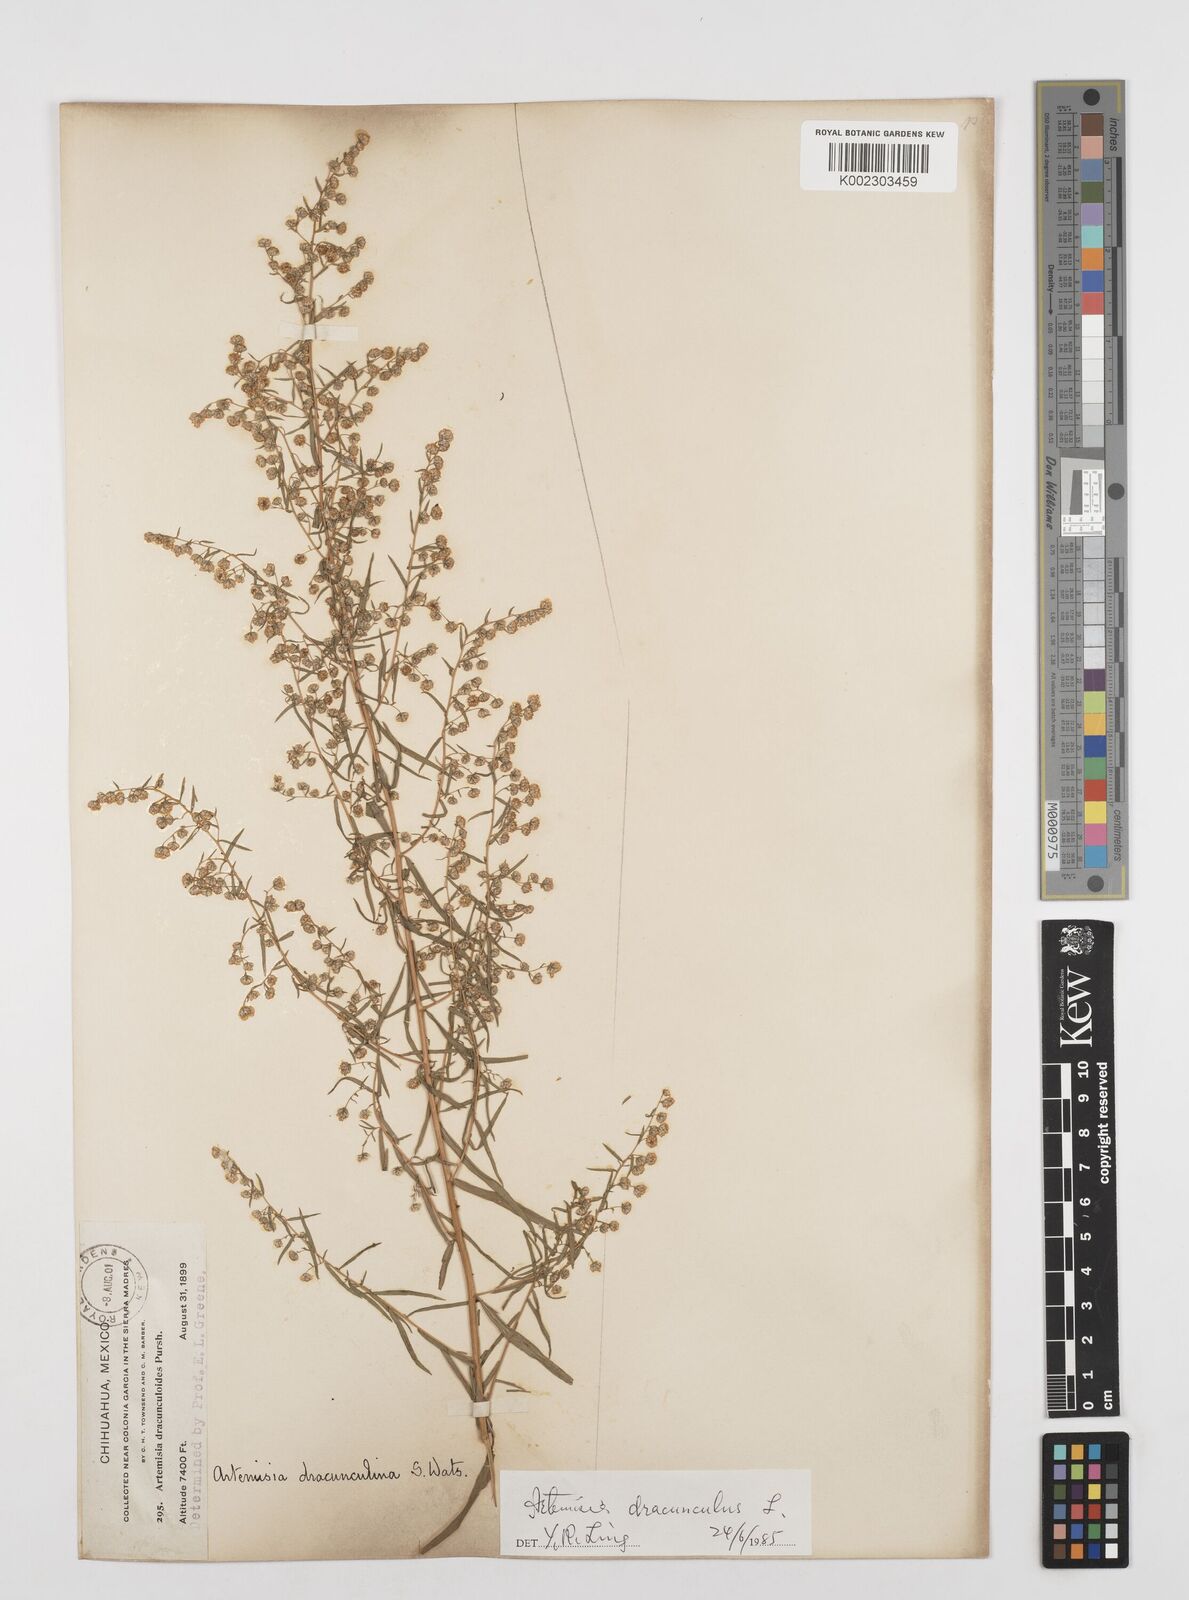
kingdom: Plantae
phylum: Tracheophyta
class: Magnoliopsida
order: Asterales
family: Asteraceae
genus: Artemisia
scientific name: Artemisia dracunculus
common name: Tarragon
